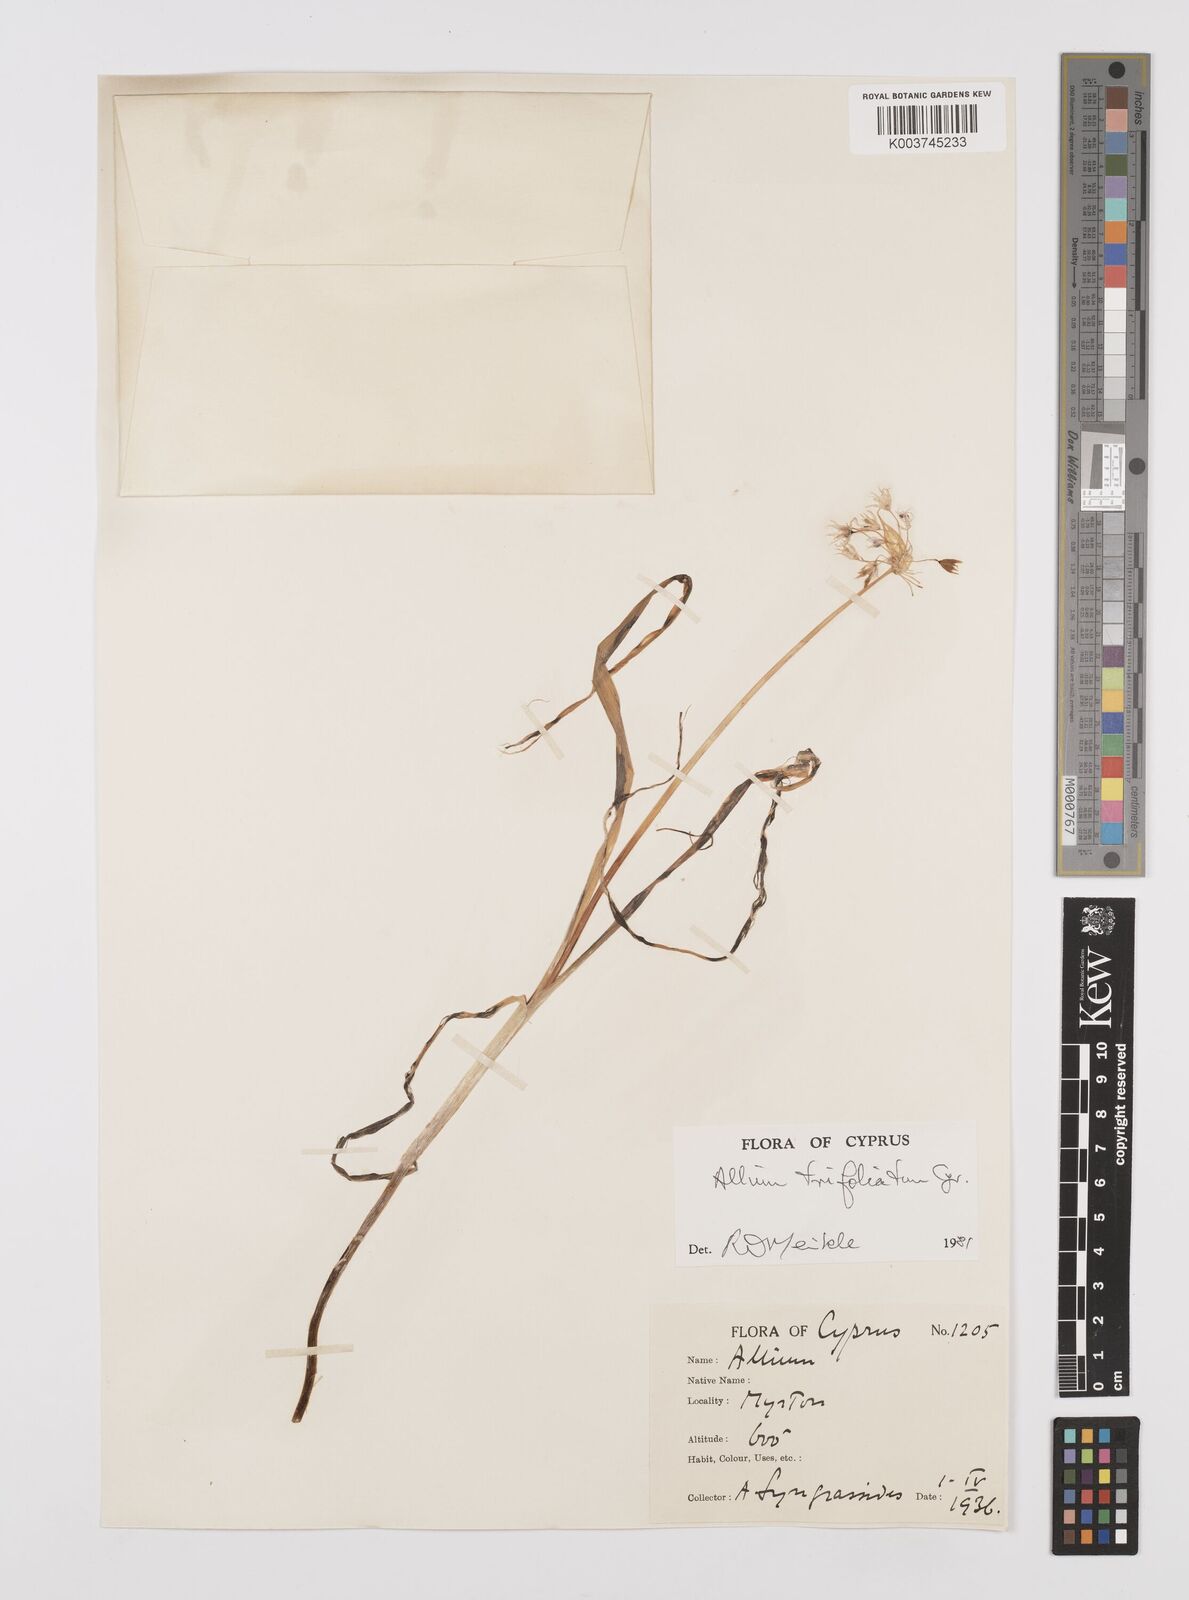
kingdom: Plantae
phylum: Tracheophyta
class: Liliopsida
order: Asparagales
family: Amaryllidaceae
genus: Allium
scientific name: Allium subhirsutum
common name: Hairy garlic
